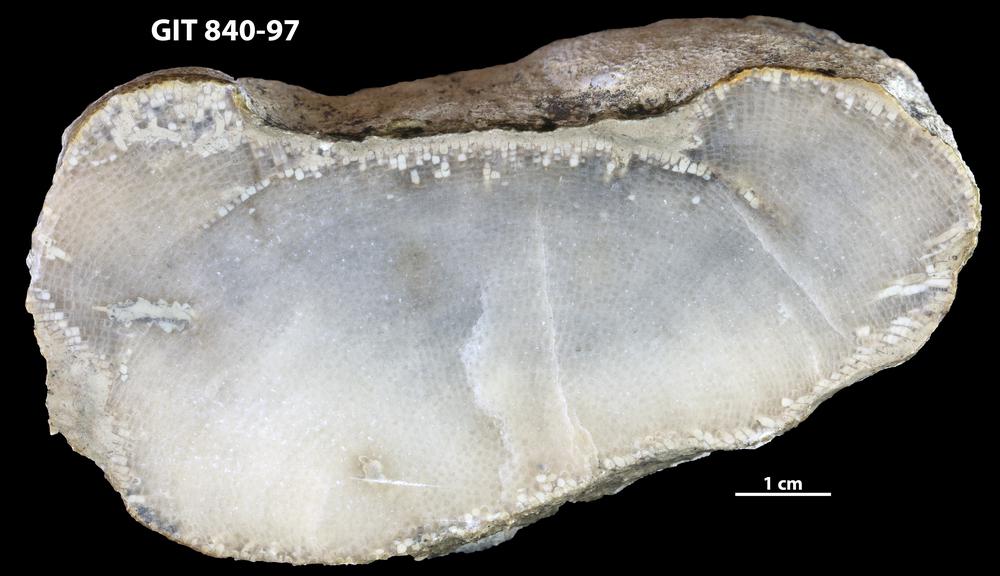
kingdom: Animalia
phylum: Cnidaria
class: Anthozoa
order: Heliolitina
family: Proheliolitidae
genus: Protoheliolites
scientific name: Protoheliolites
